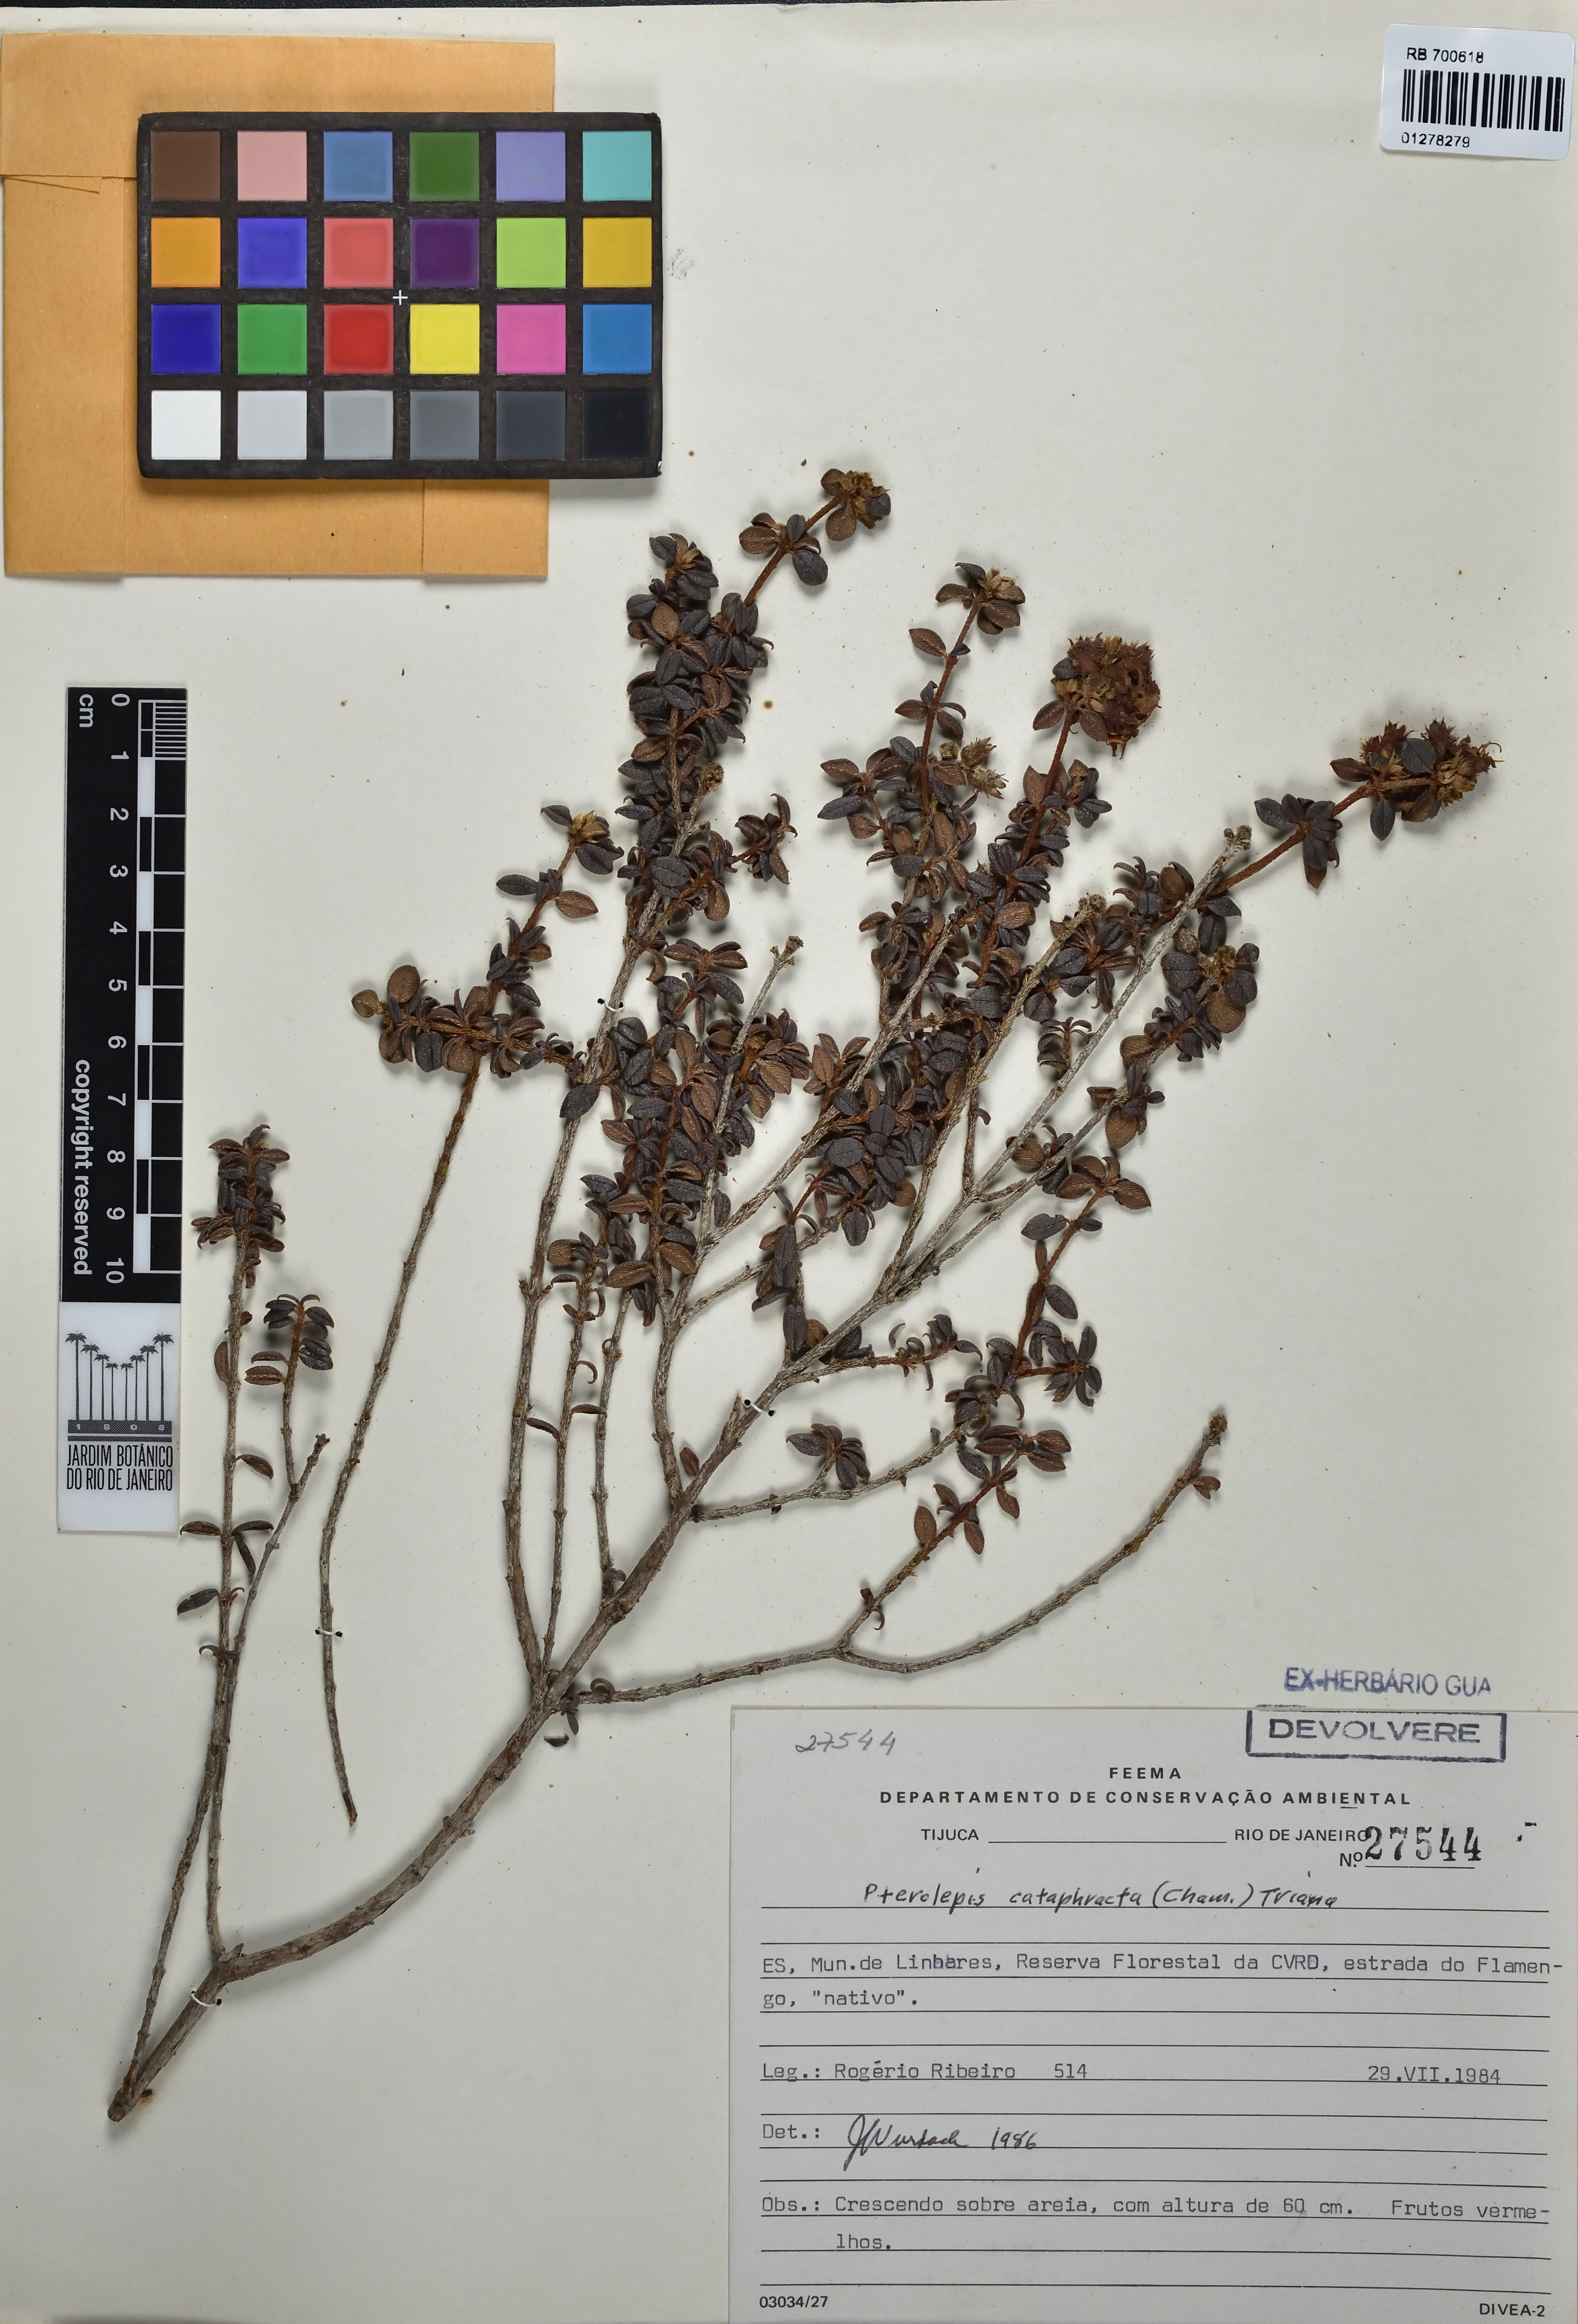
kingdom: Plantae
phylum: Tracheophyta
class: Magnoliopsida
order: Myrtales
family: Melastomataceae
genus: Pterolepis
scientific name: Pterolepis cataphracta
